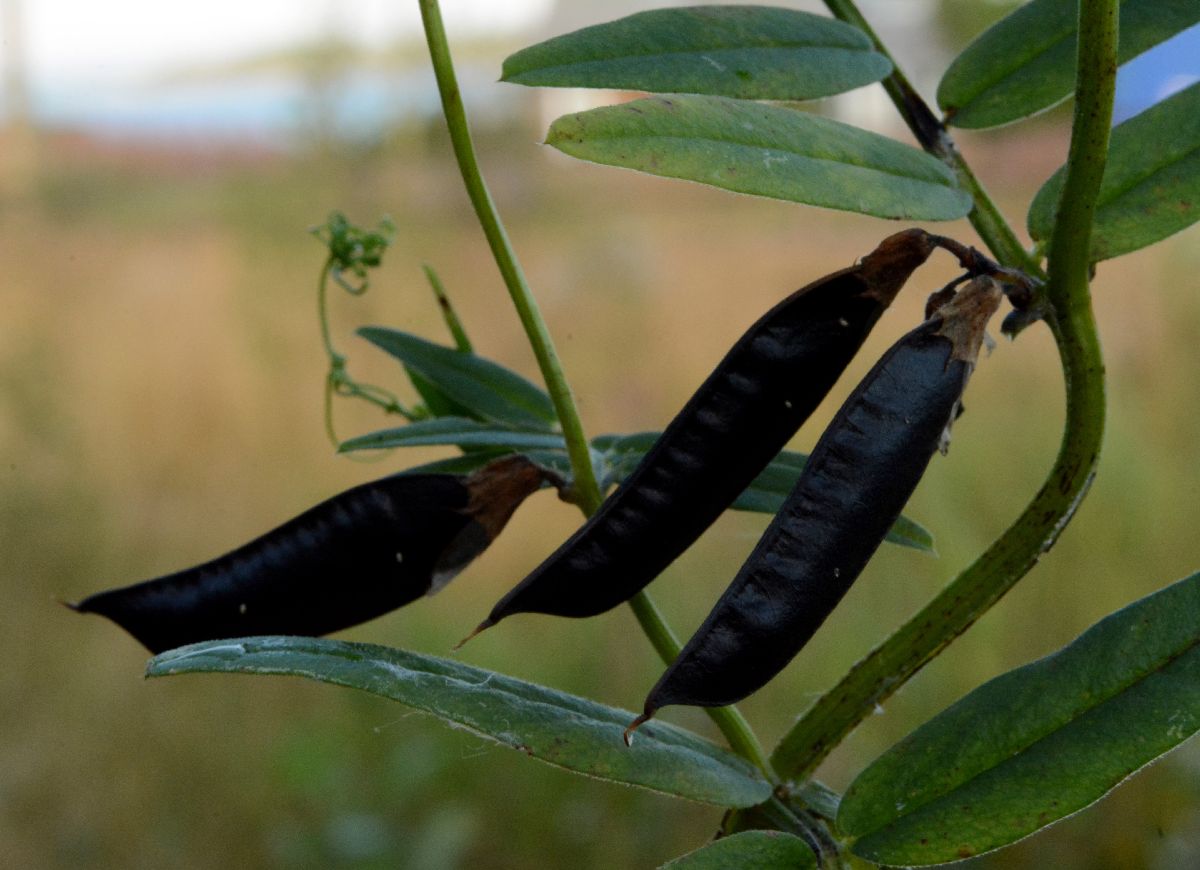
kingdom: Plantae
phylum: Tracheophyta
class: Magnoliopsida
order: Fabales
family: Fabaceae
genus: Vicia
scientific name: Vicia sepium
